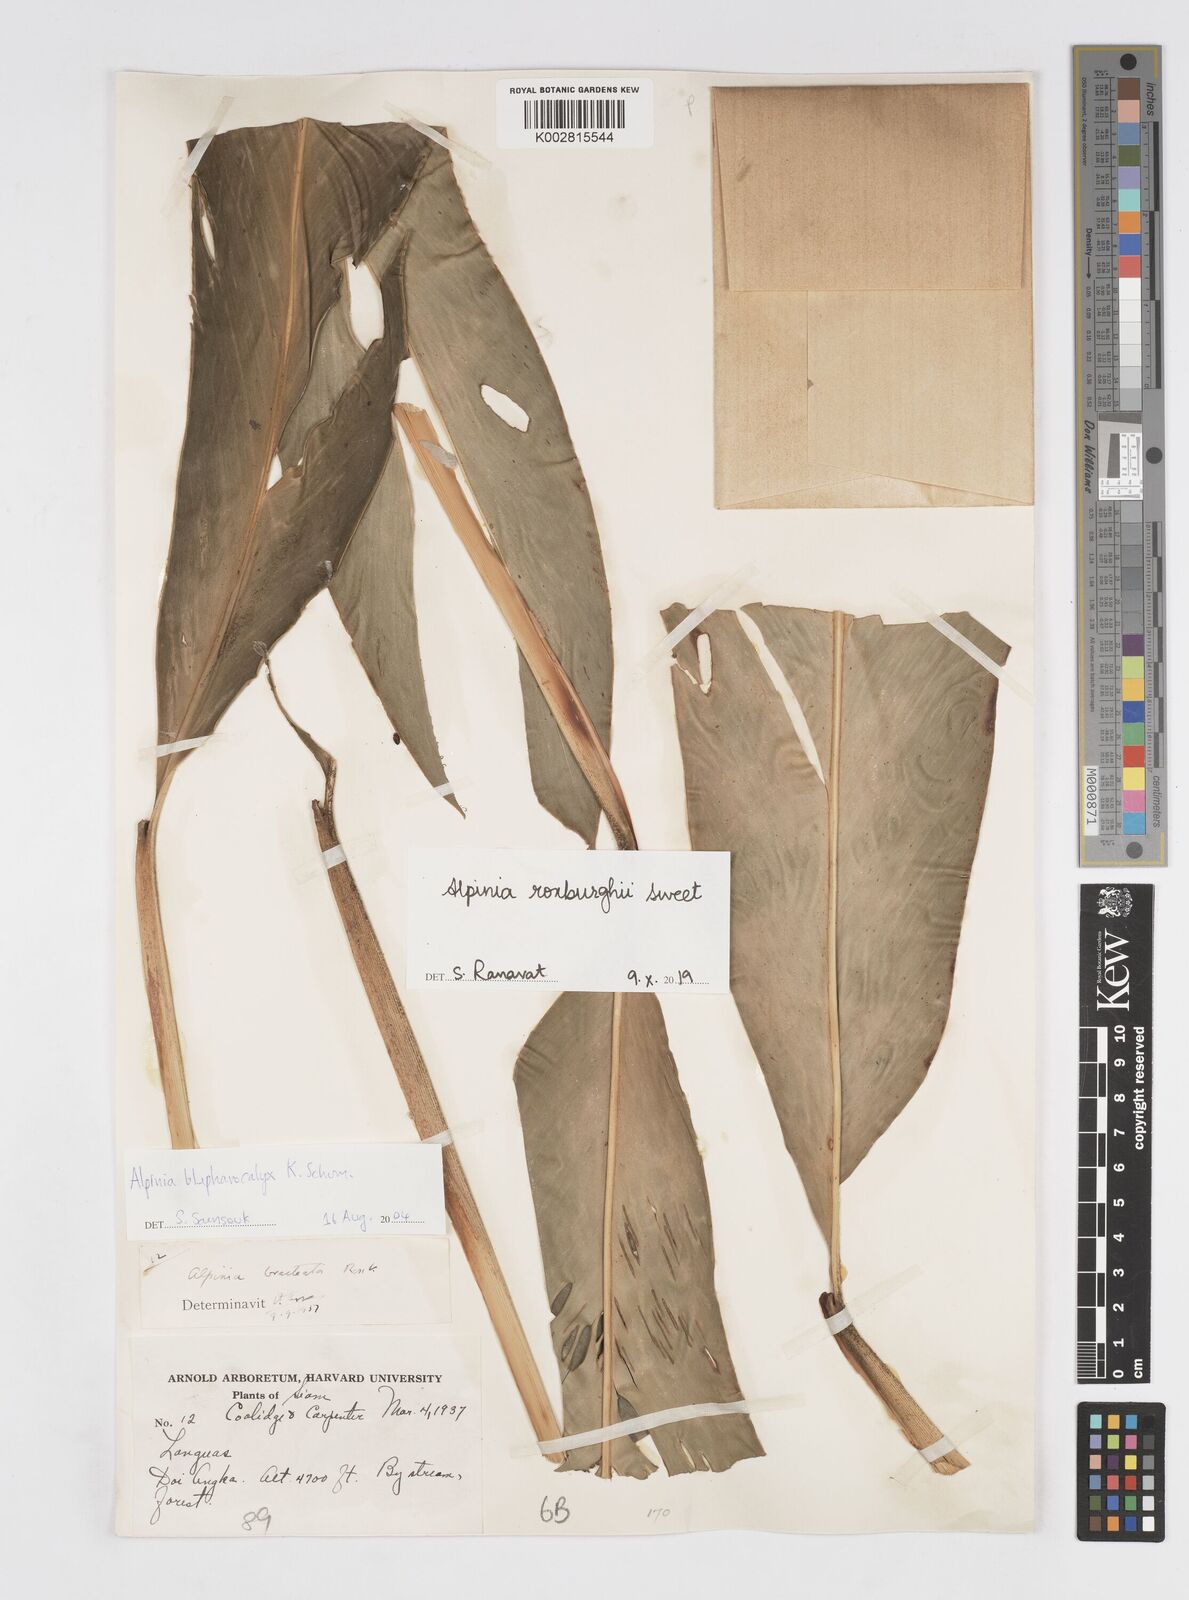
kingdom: Plantae
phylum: Tracheophyta
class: Liliopsida
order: Zingiberales
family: Zingiberaceae
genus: Alpinia
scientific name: Alpinia roxburghii
